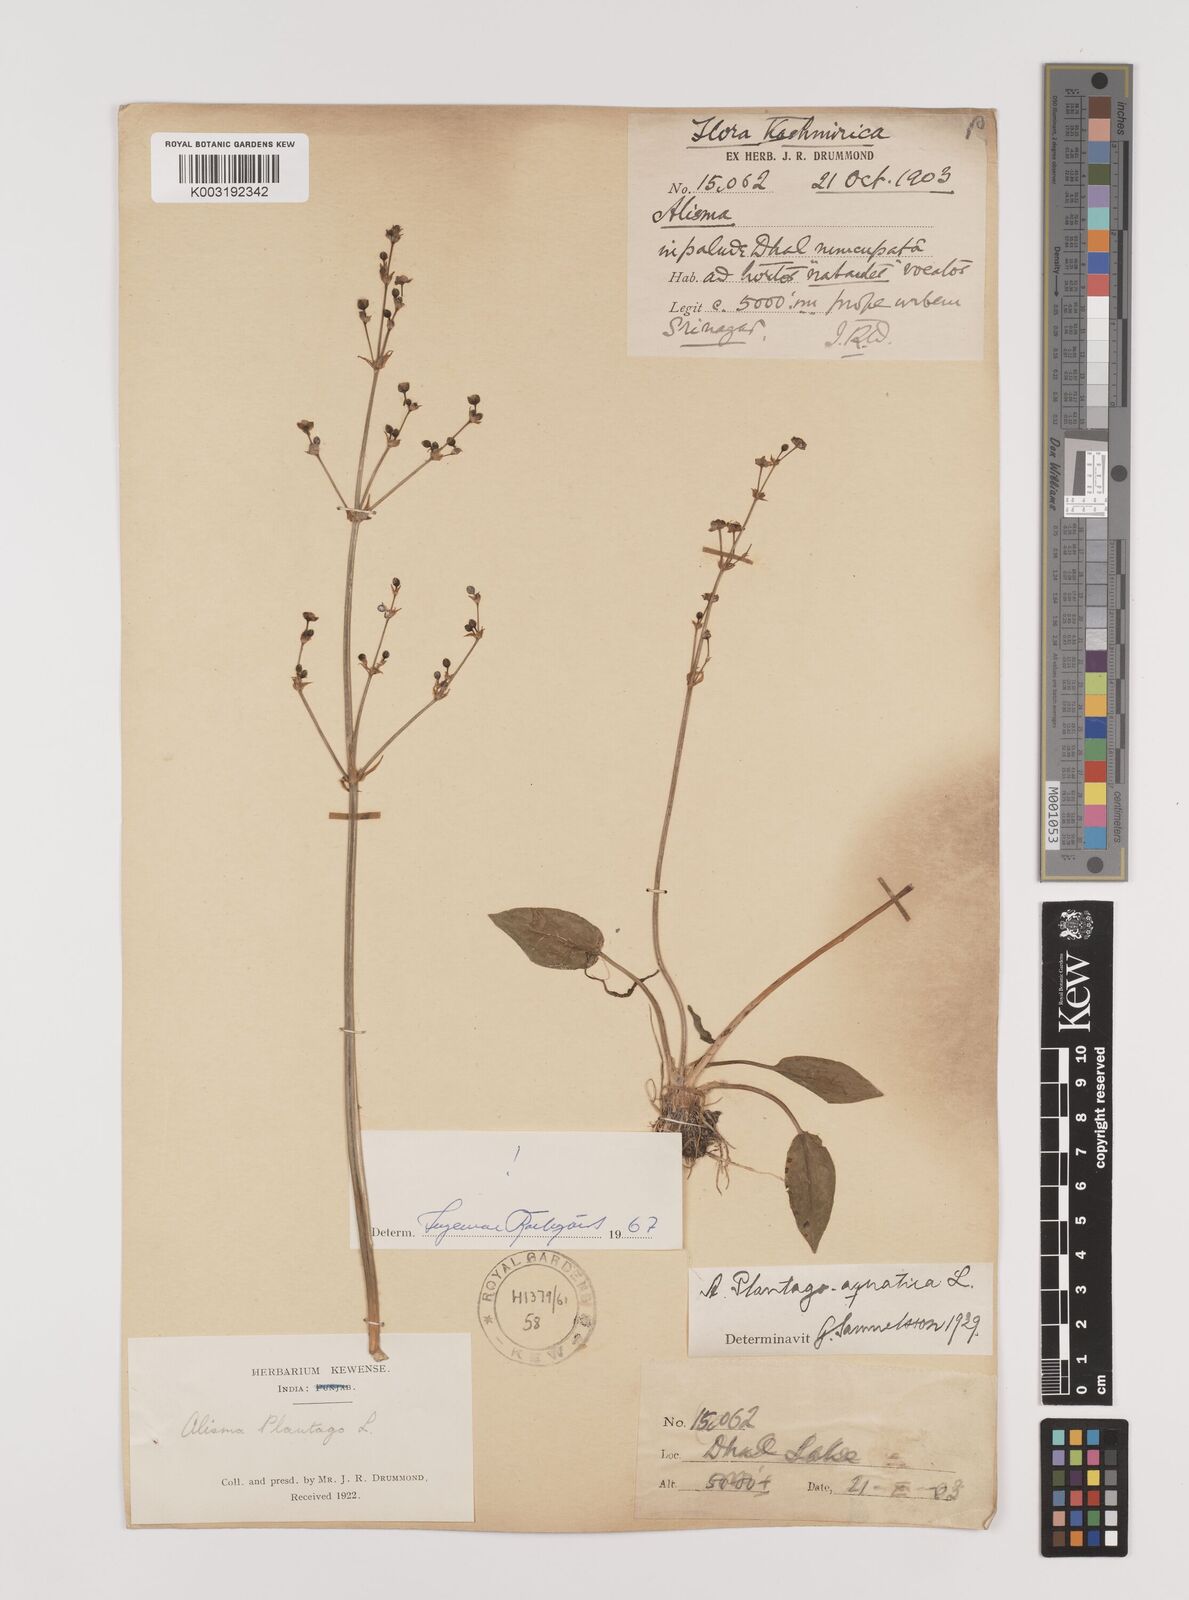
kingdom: Plantae
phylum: Tracheophyta
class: Liliopsida
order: Alismatales
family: Alismataceae
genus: Alisma
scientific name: Alisma plantago-aquatica
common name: Water-plantain
